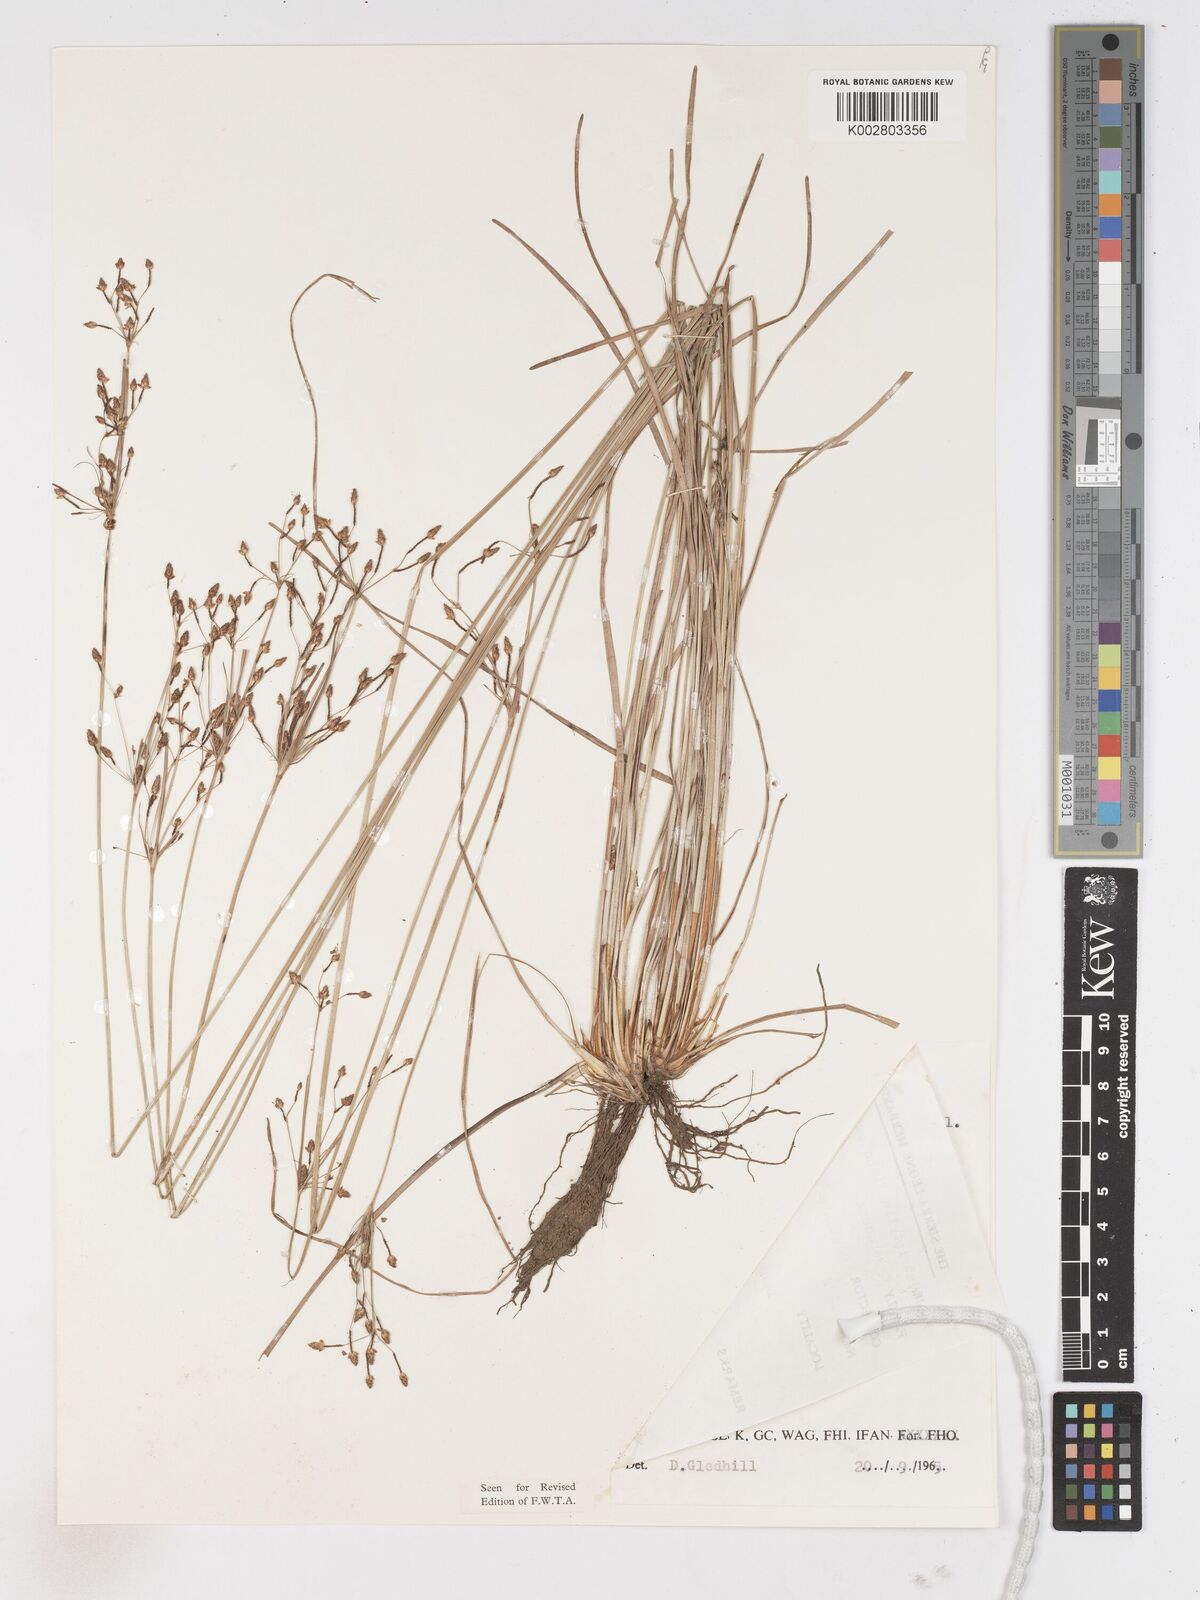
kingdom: Plantae
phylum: Tracheophyta
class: Liliopsida
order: Poales
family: Cyperaceae
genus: Fimbristylis
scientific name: Fimbristylis dichotoma
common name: Forked fimbry
